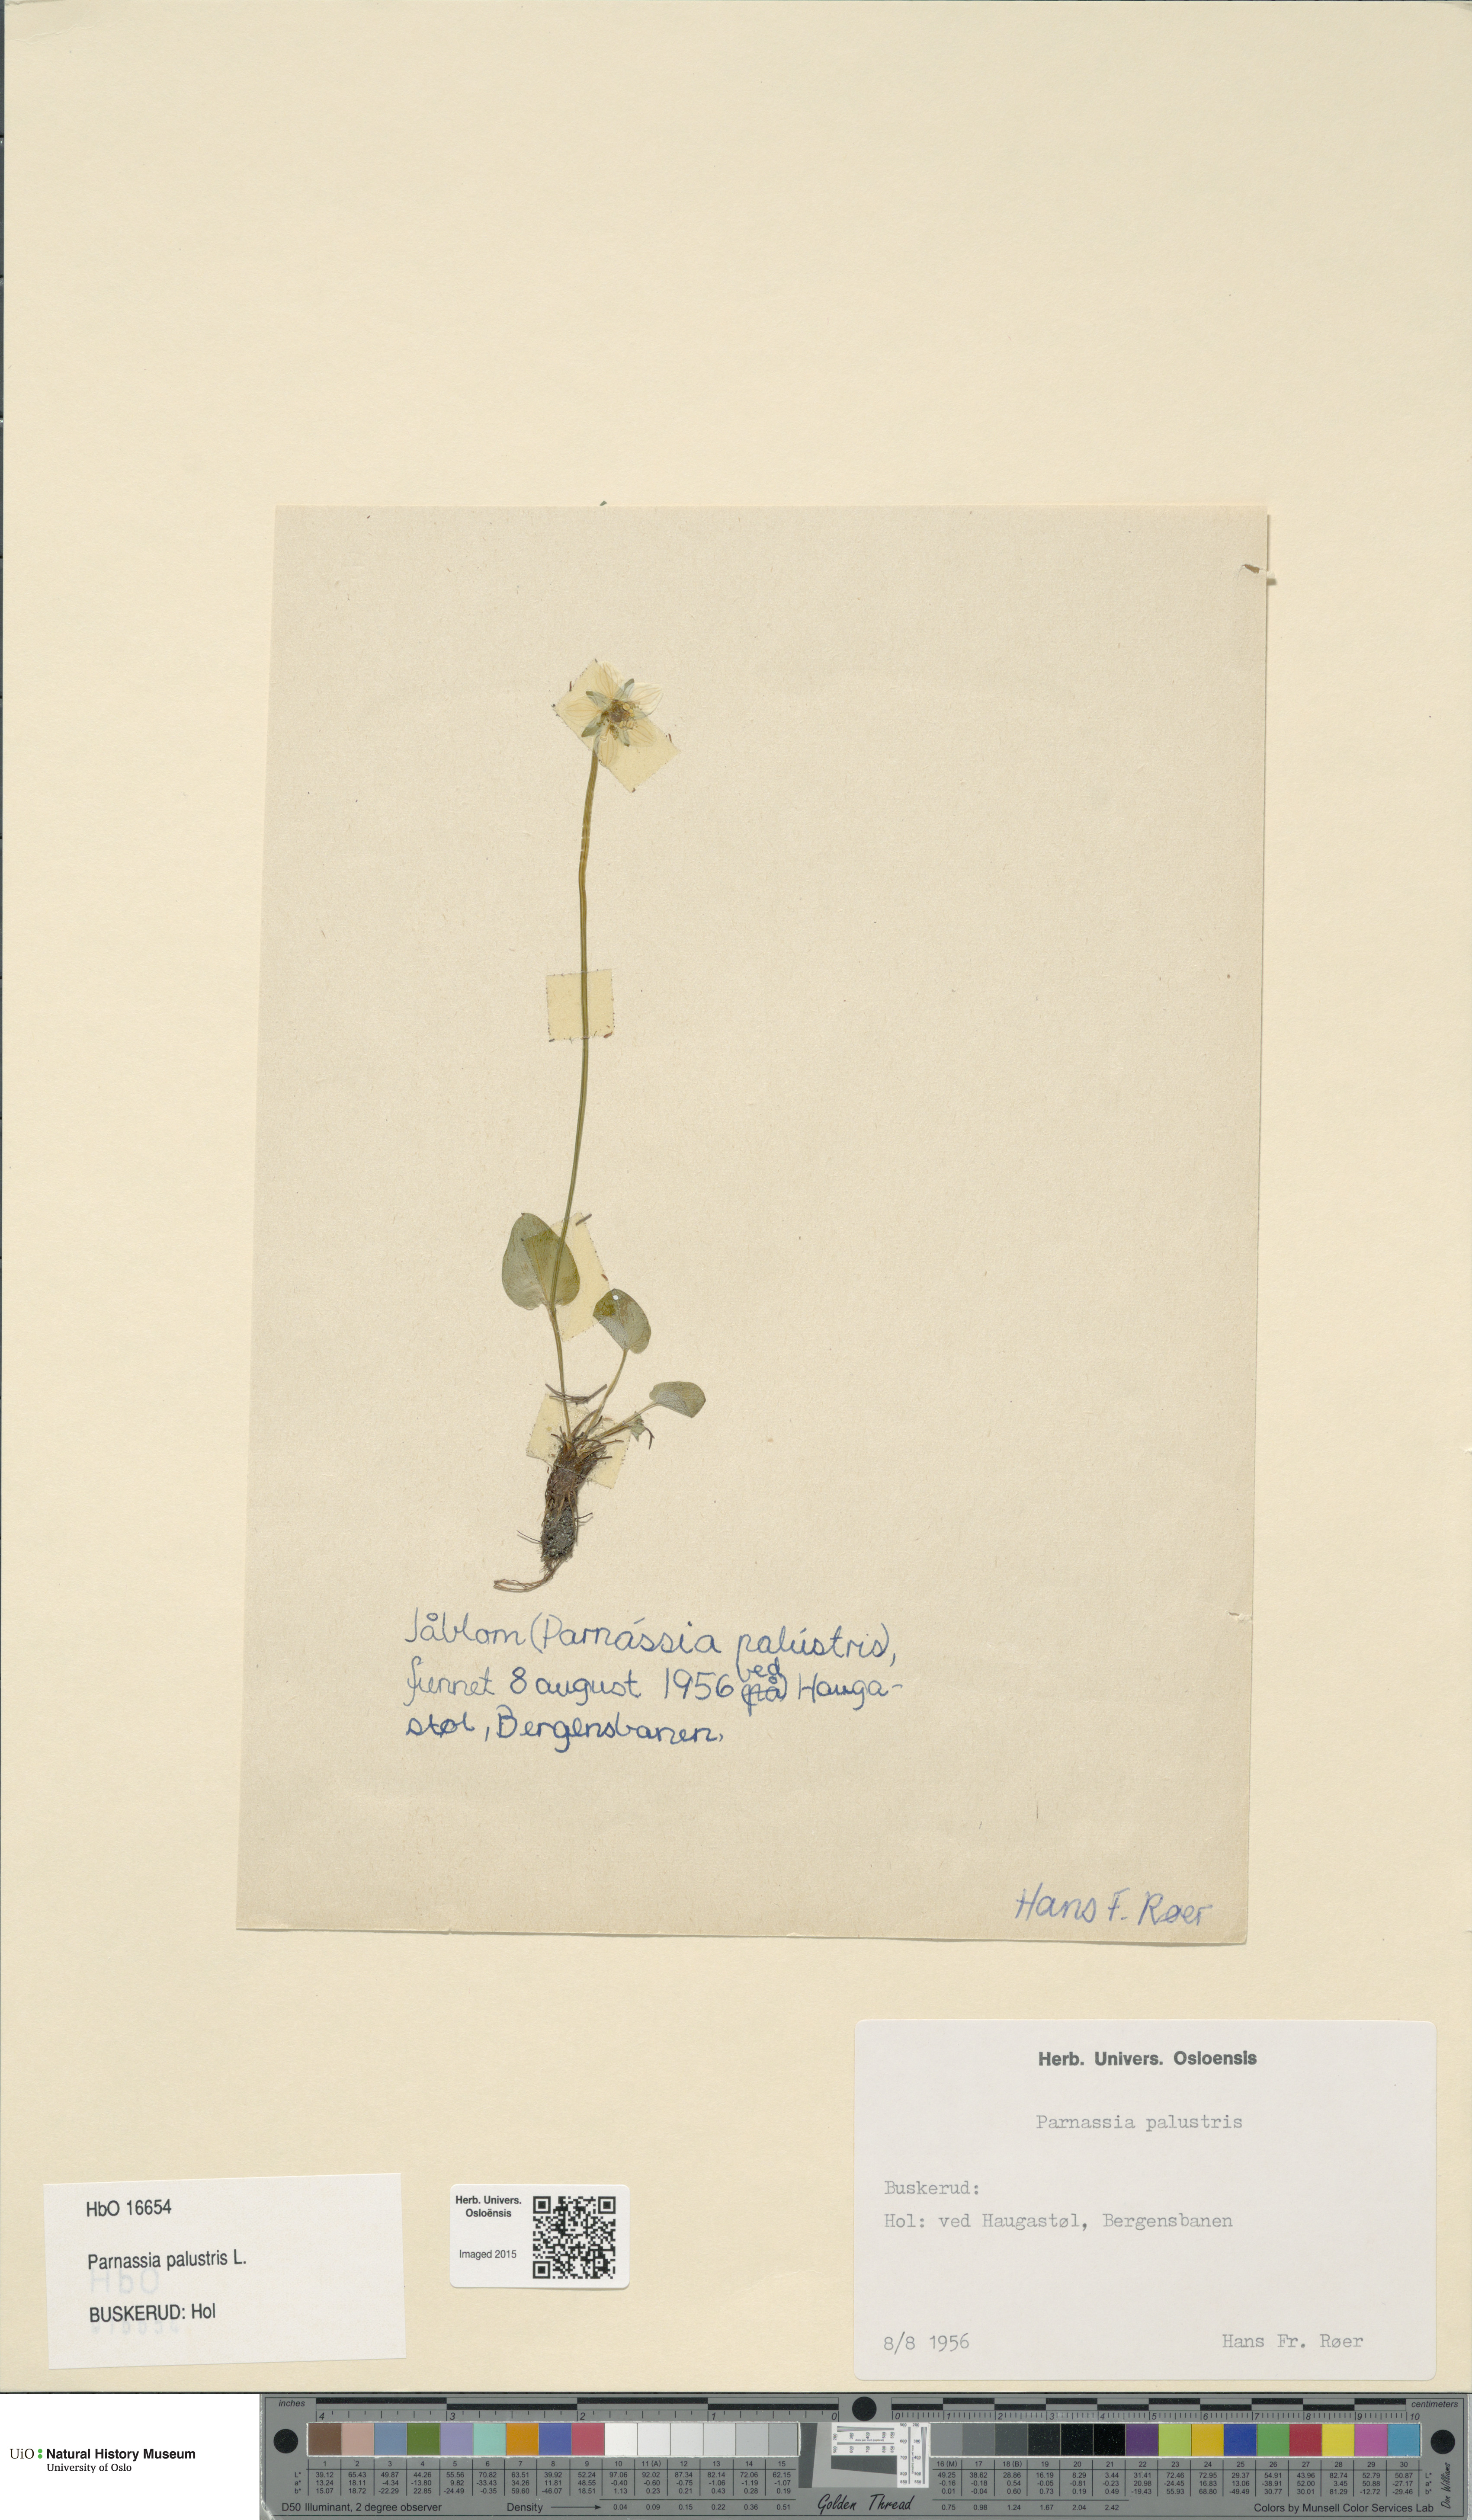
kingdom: Plantae
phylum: Tracheophyta
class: Magnoliopsida
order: Celastrales
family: Parnassiaceae
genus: Parnassia
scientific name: Parnassia palustris
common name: Grass-of-parnassus
